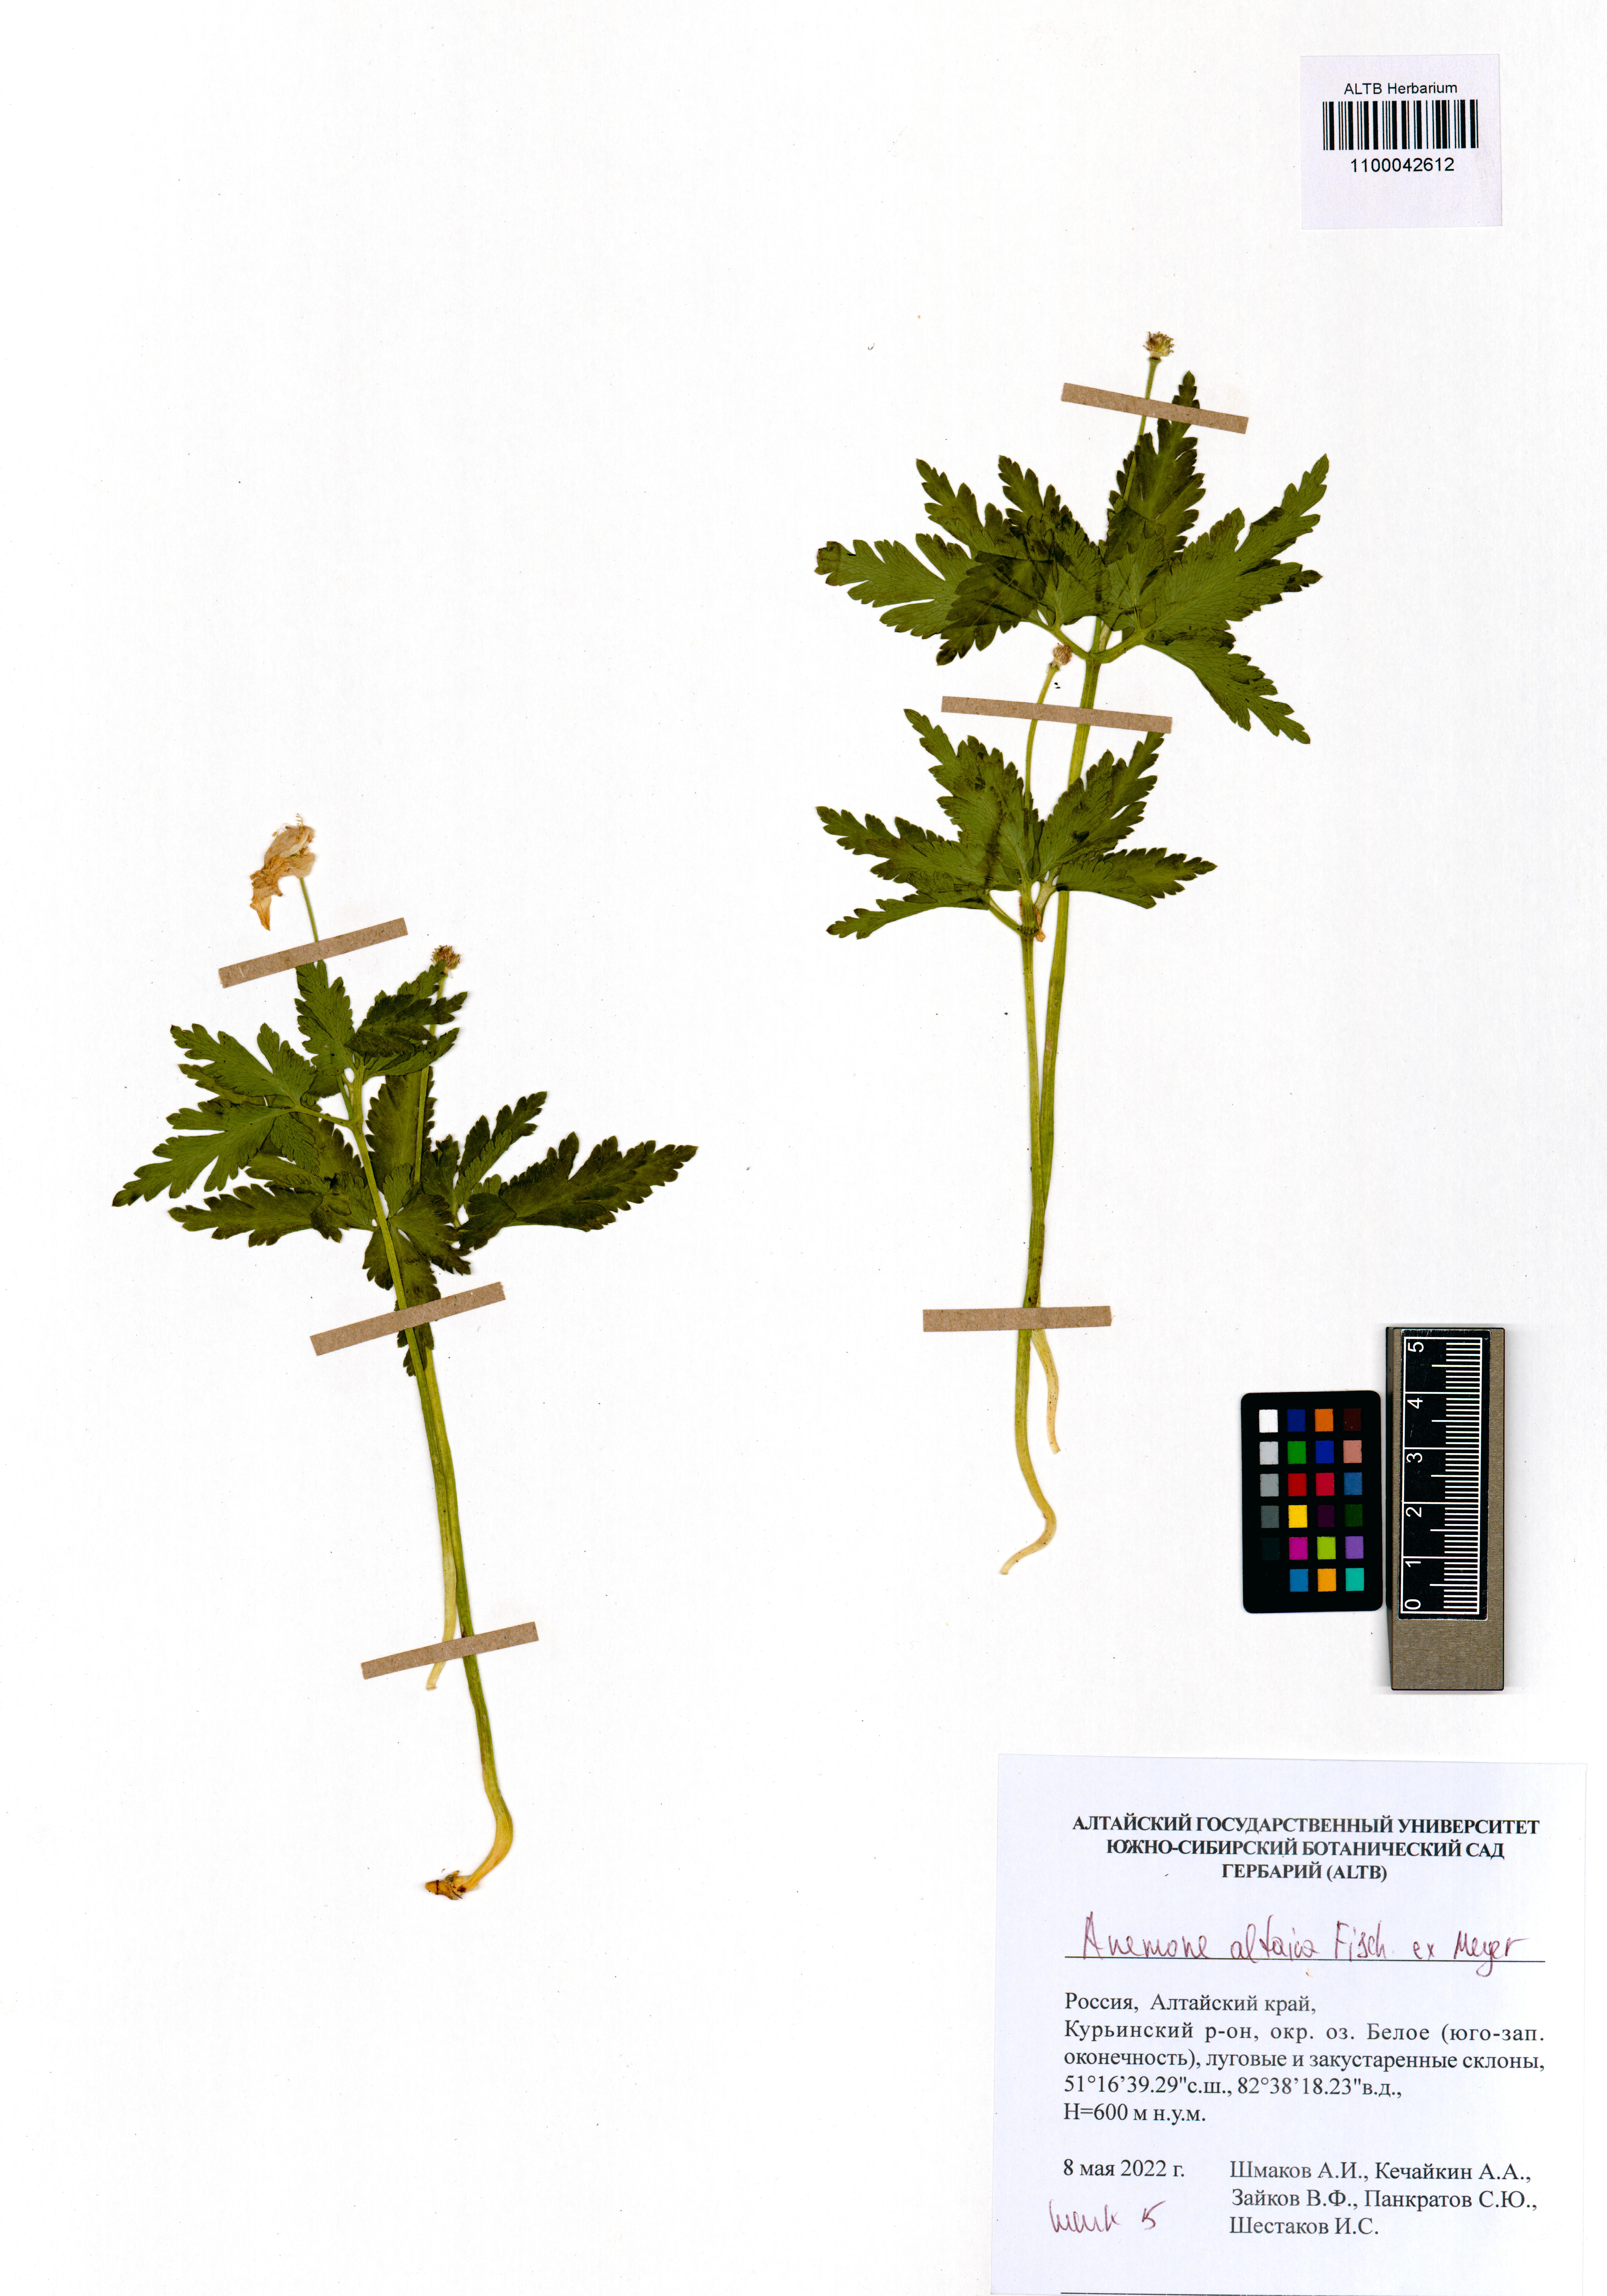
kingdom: Plantae
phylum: Tracheophyta
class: Magnoliopsida
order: Ranunculales
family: Ranunculaceae
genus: Anemone
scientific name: Anemone altaica
